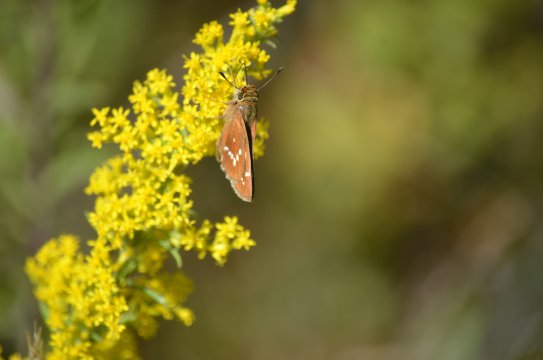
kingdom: Animalia
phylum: Arthropoda
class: Insecta
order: Lepidoptera
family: Hesperiidae
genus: Hesperia
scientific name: Hesperia leonardus
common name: Leonard's Skipper
